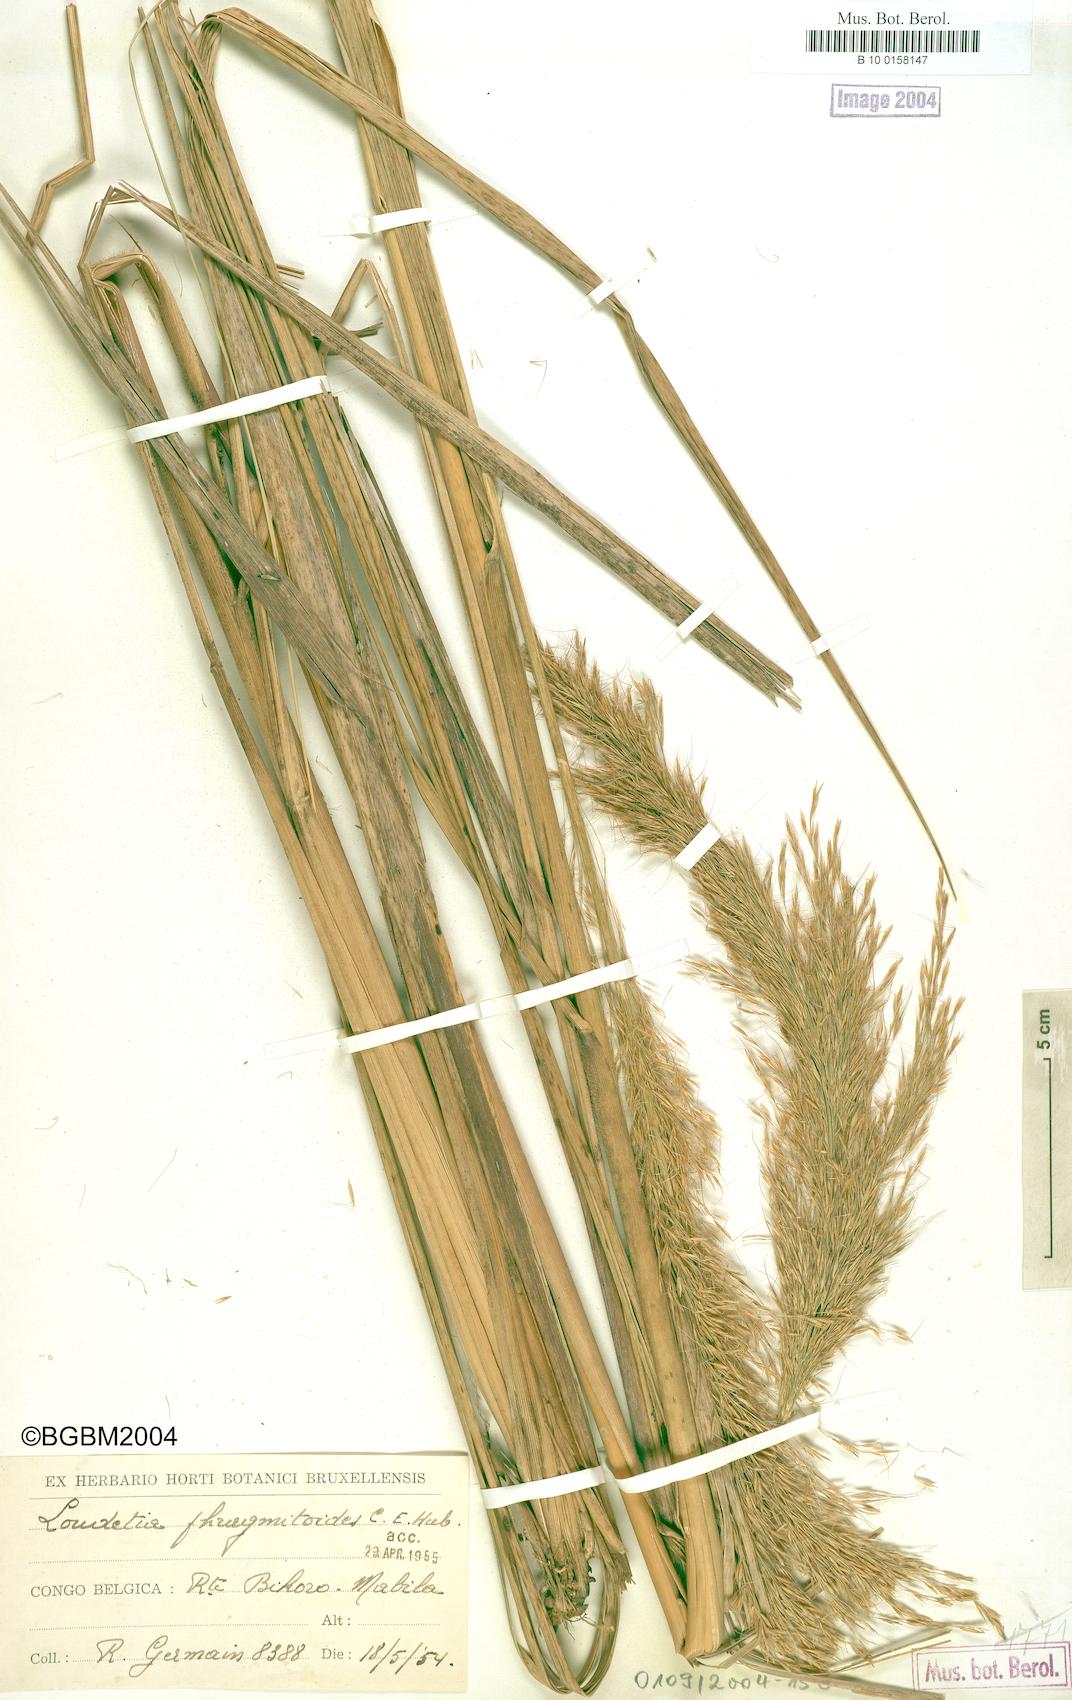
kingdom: Plantae
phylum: Tracheophyta
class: Liliopsida
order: Poales
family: Poaceae
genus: Loudetia
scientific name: Loudetia phragmitoides
